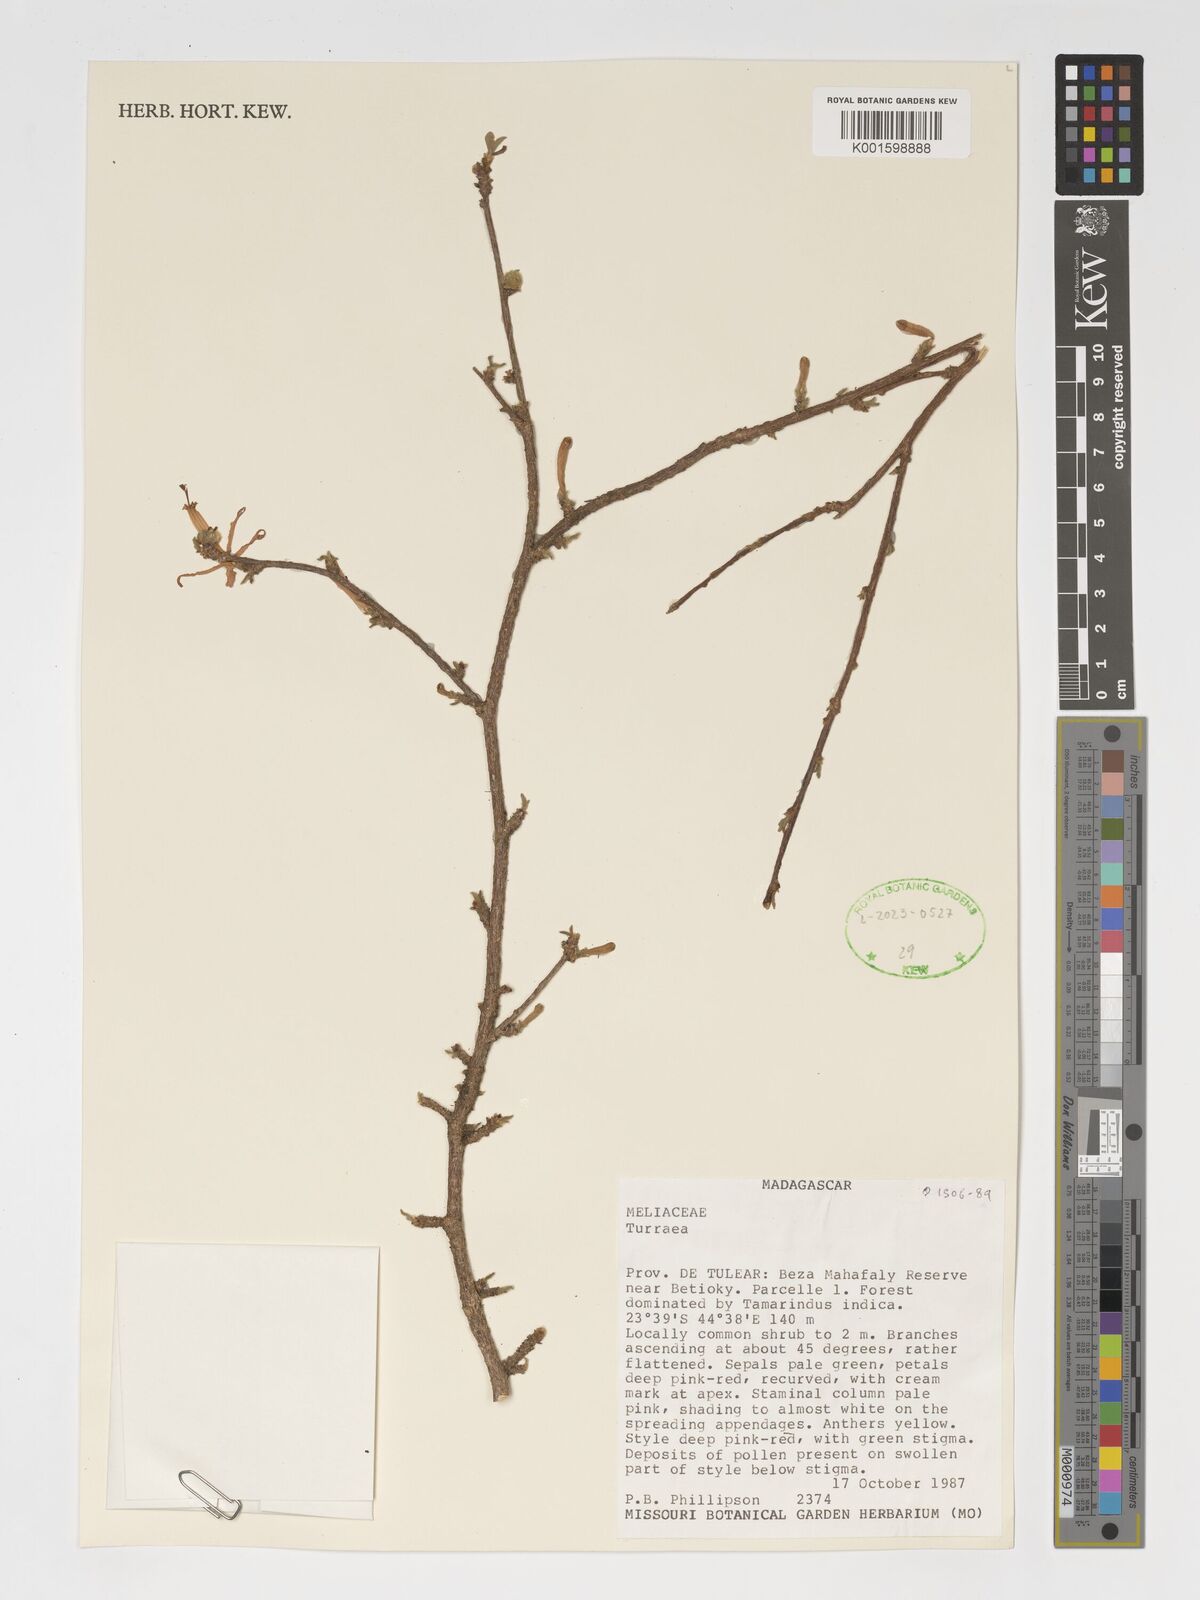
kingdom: Plantae
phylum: Tracheophyta
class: Magnoliopsida
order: Sapindales
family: Meliaceae
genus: Turraea
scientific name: Turraea
